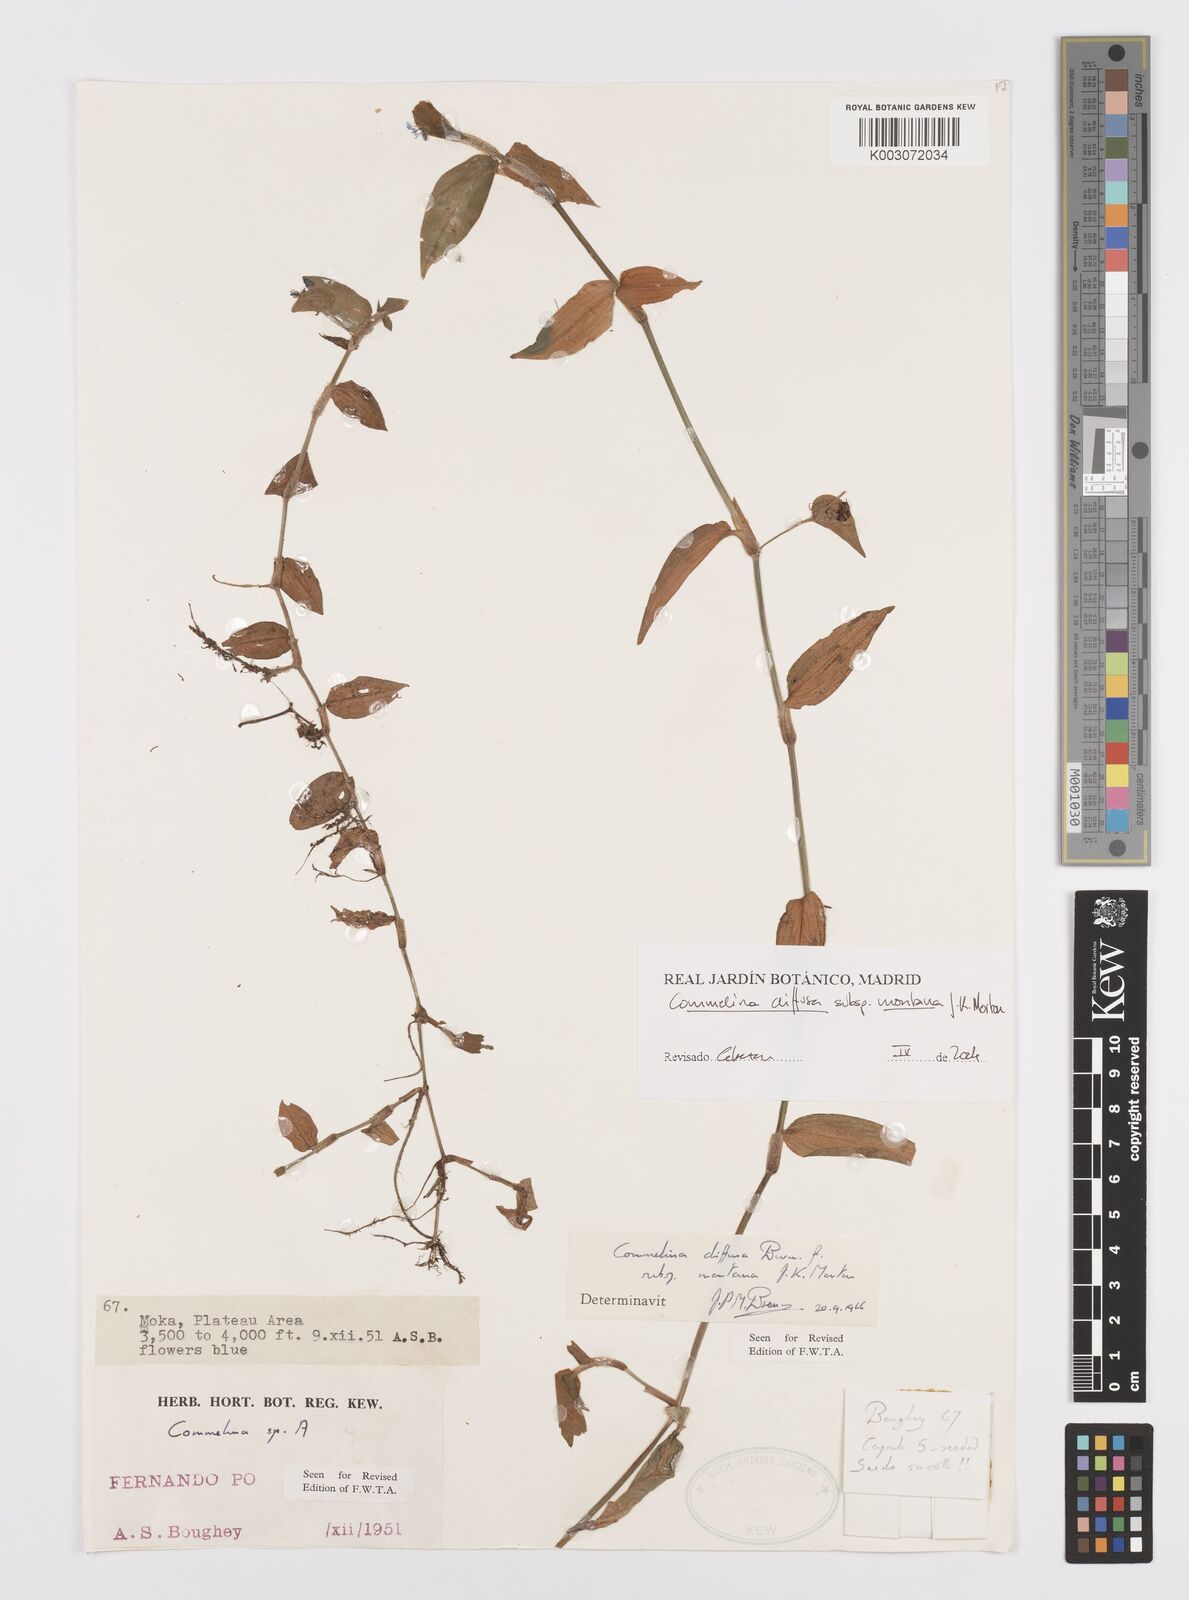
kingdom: Plantae
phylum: Tracheophyta
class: Liliopsida
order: Commelinales
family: Commelinaceae
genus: Commelina
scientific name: Commelina diffusa
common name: Climbing dayflower
